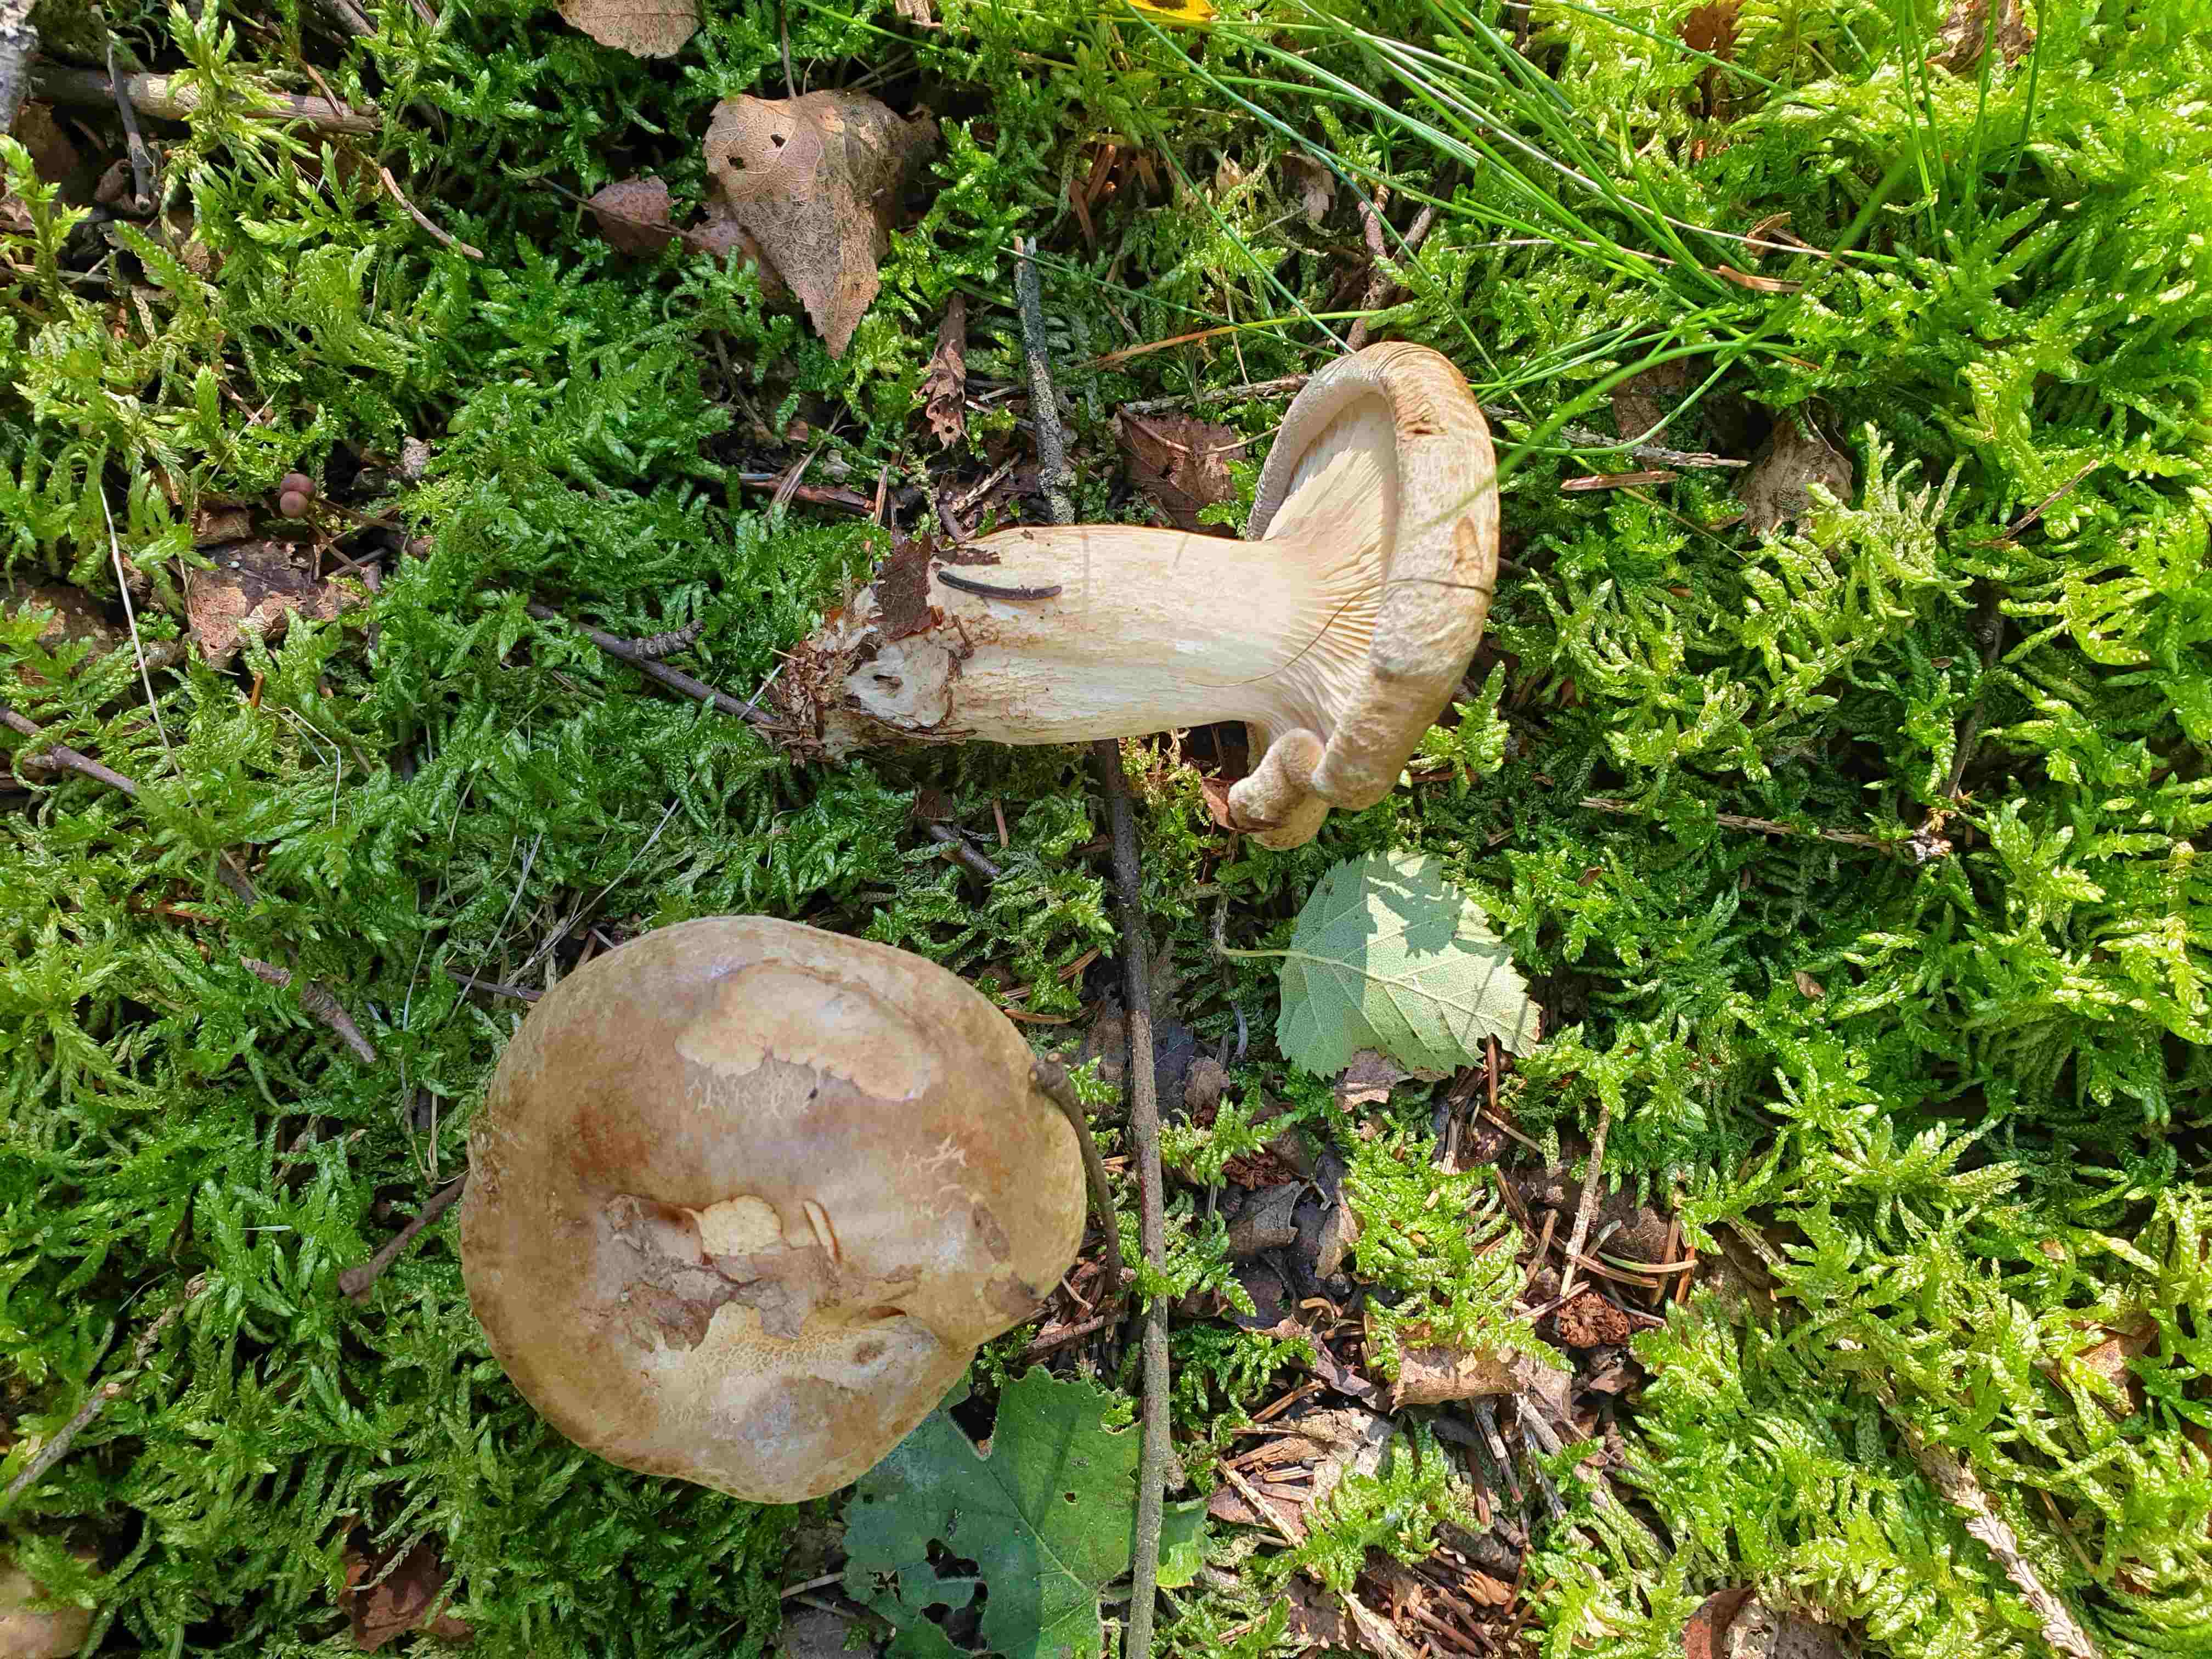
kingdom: Fungi
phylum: Basidiomycota
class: Agaricomycetes
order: Boletales
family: Paxillaceae
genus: Paxillus
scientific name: Paxillus involutus
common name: almindelig netbladhat
